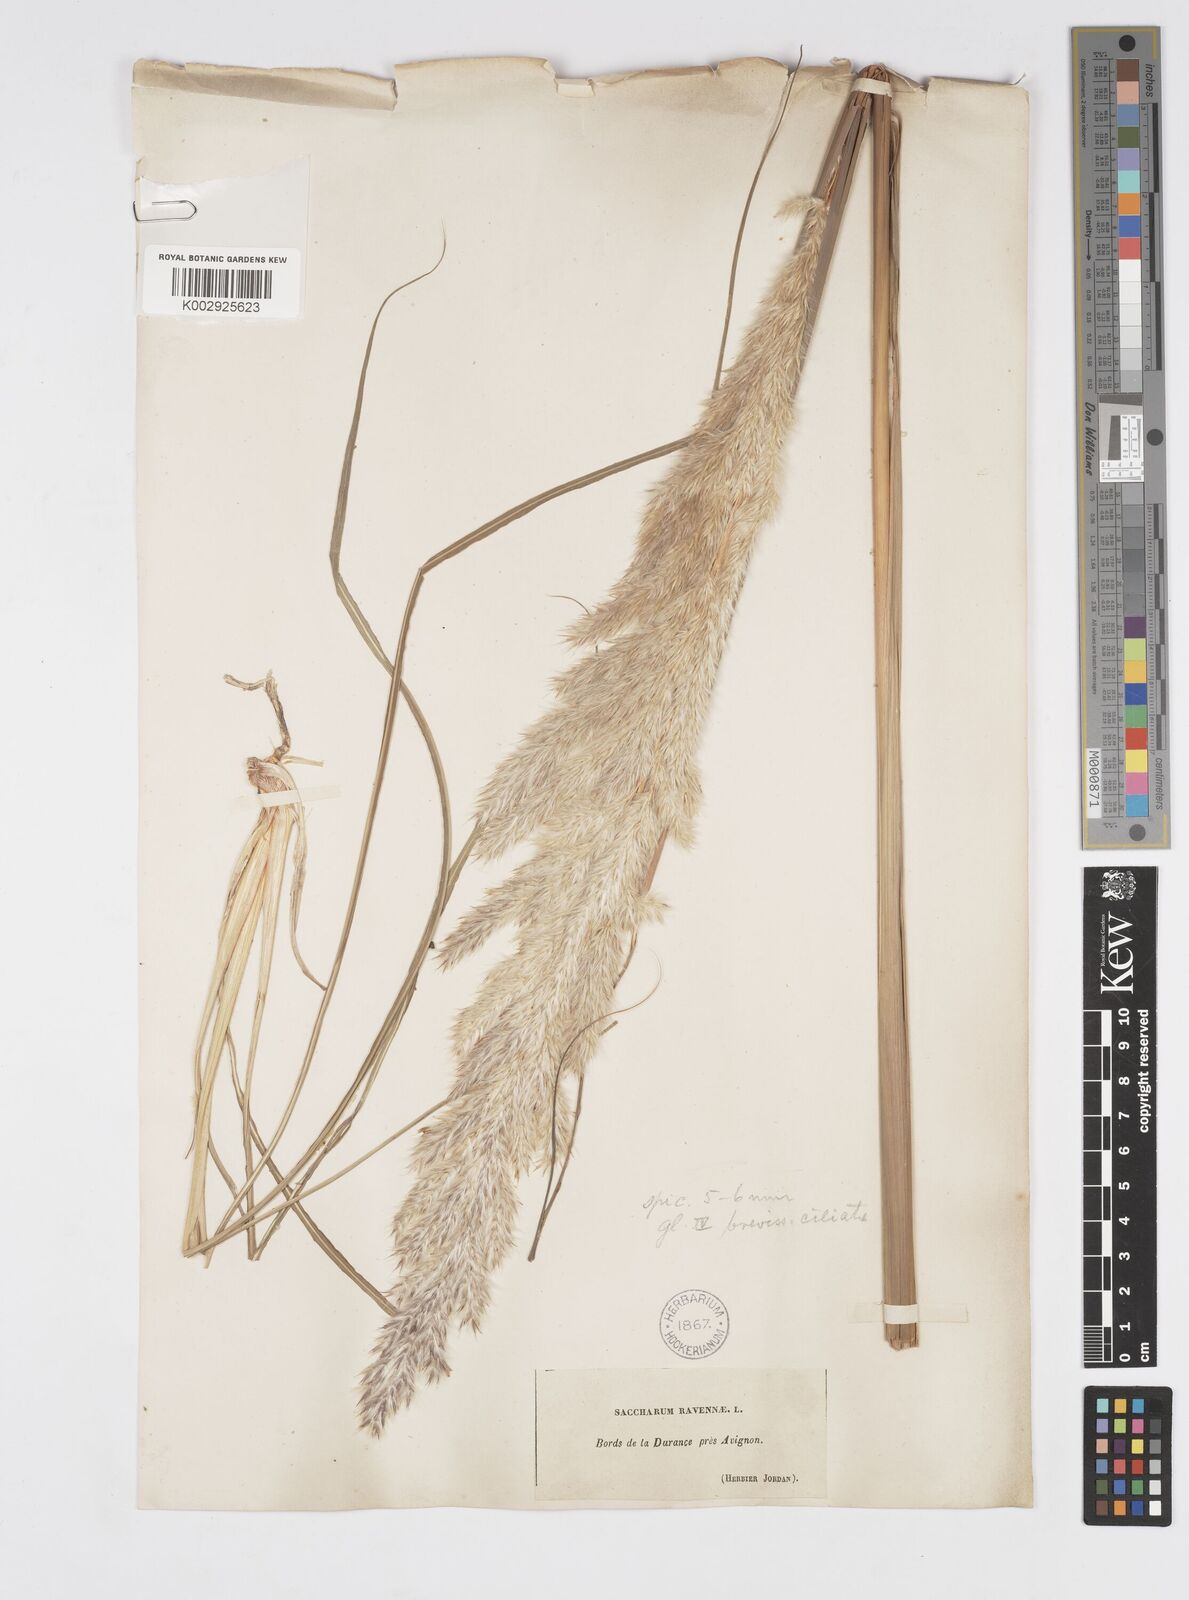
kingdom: Plantae
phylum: Tracheophyta
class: Liliopsida
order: Poales
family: Poaceae
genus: Tripidium
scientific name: Tripidium ravennae
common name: Ravenna grass
